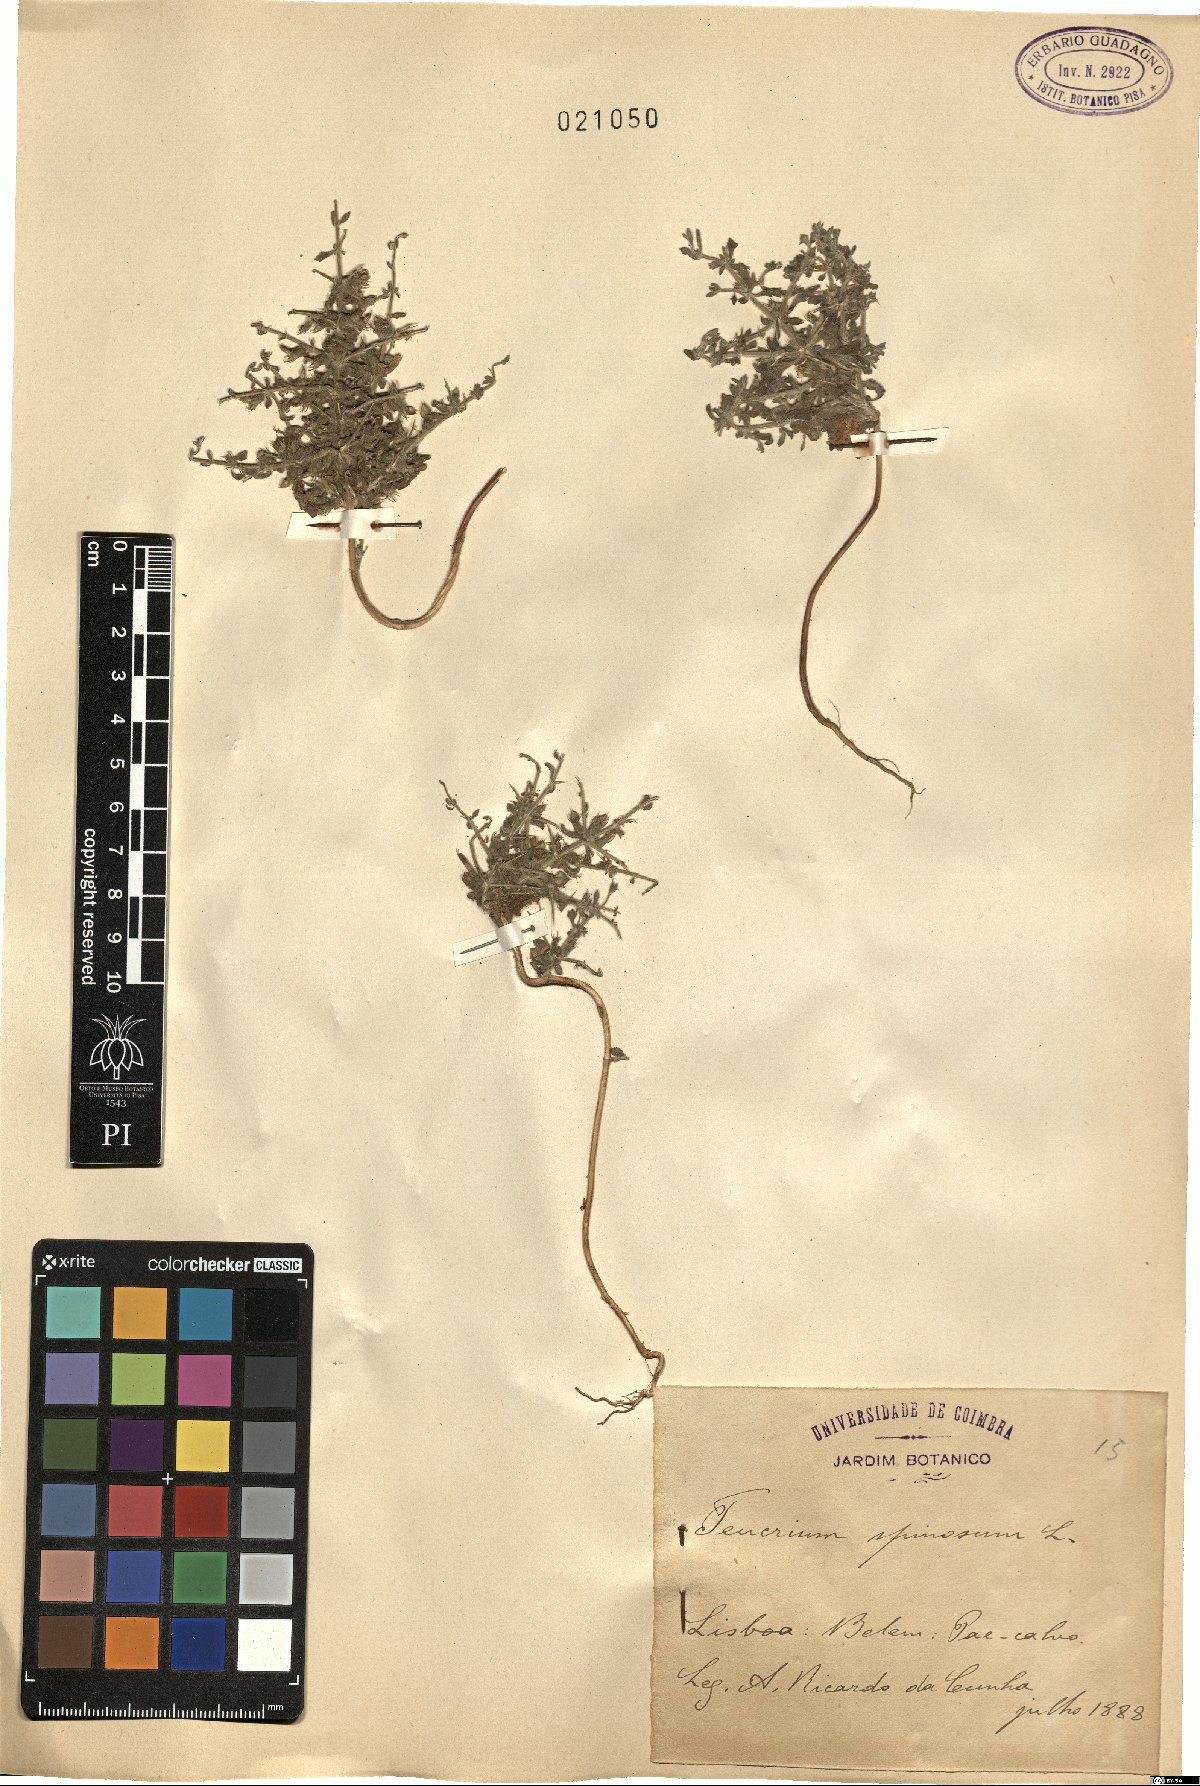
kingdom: Plantae
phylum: Tracheophyta
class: Magnoliopsida
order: Lamiales
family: Lamiaceae
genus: Teucrium
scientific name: Teucrium spinosum
